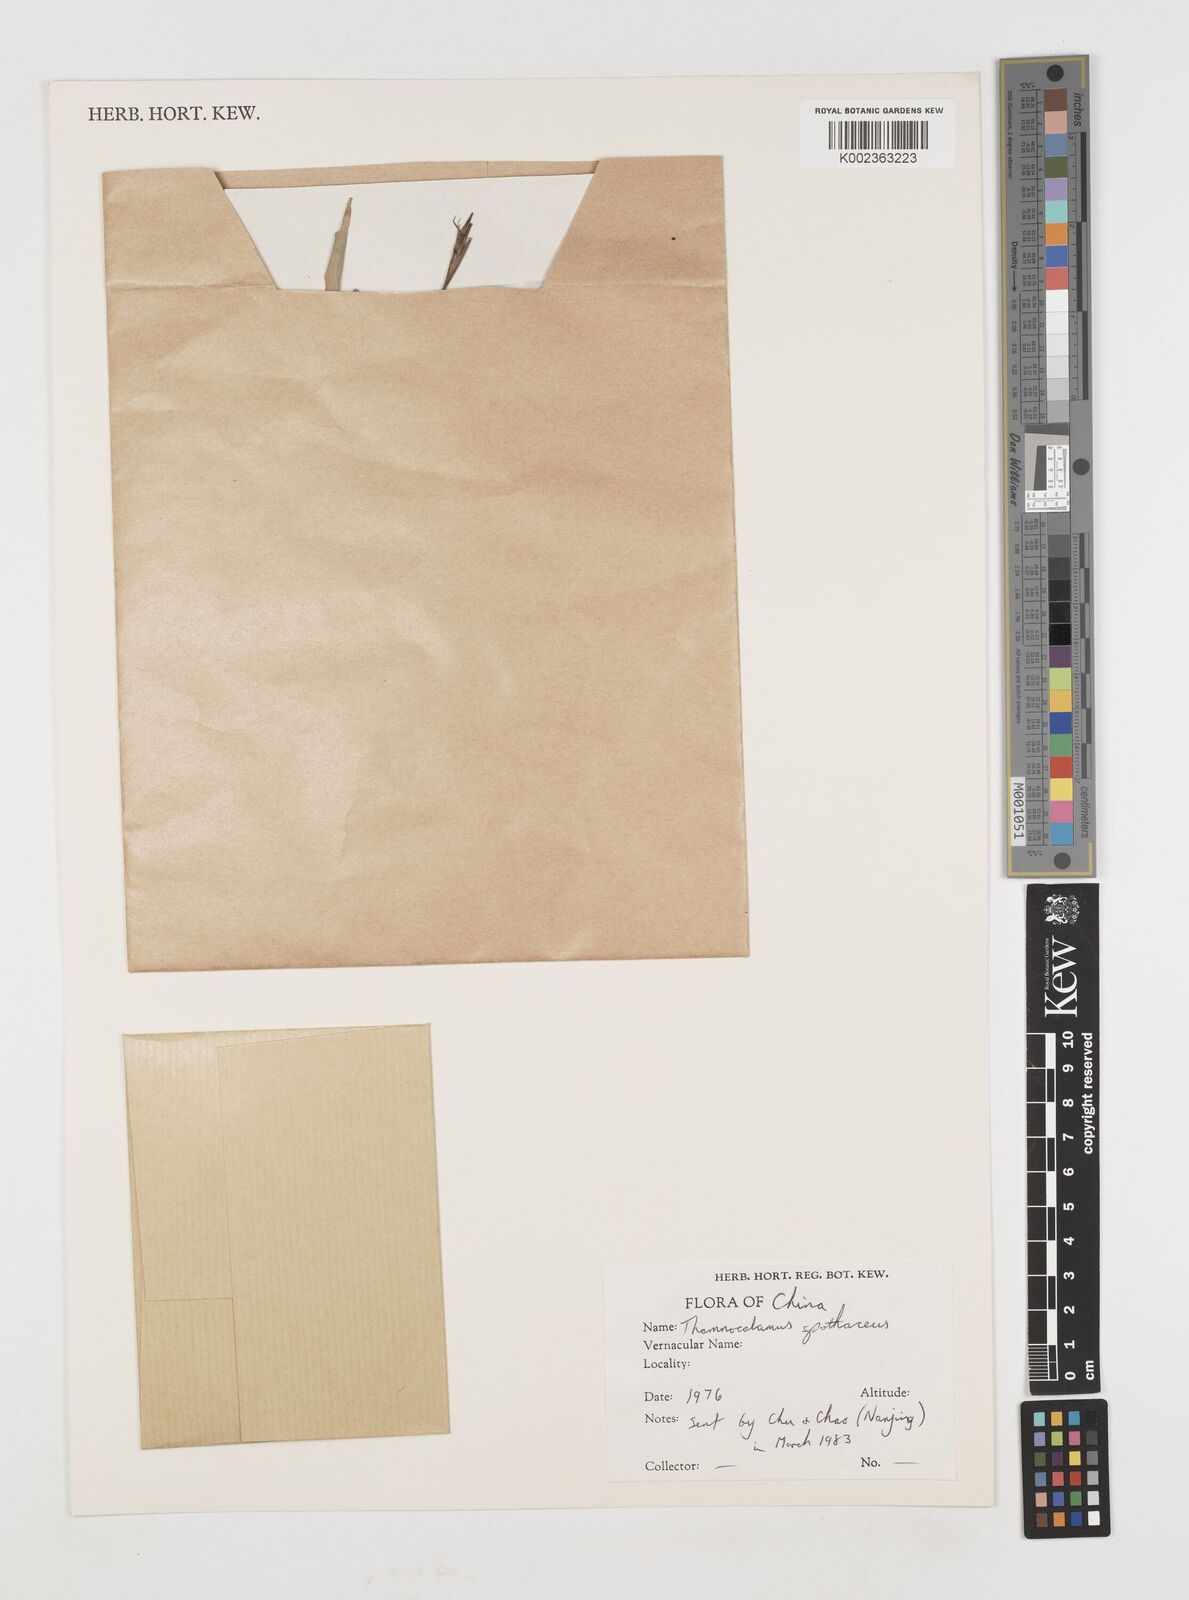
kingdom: Plantae
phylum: Tracheophyta
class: Liliopsida
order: Poales
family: Poaceae
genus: Fargesia
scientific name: Fargesia spathacea
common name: Chinese fountain-bamboo
